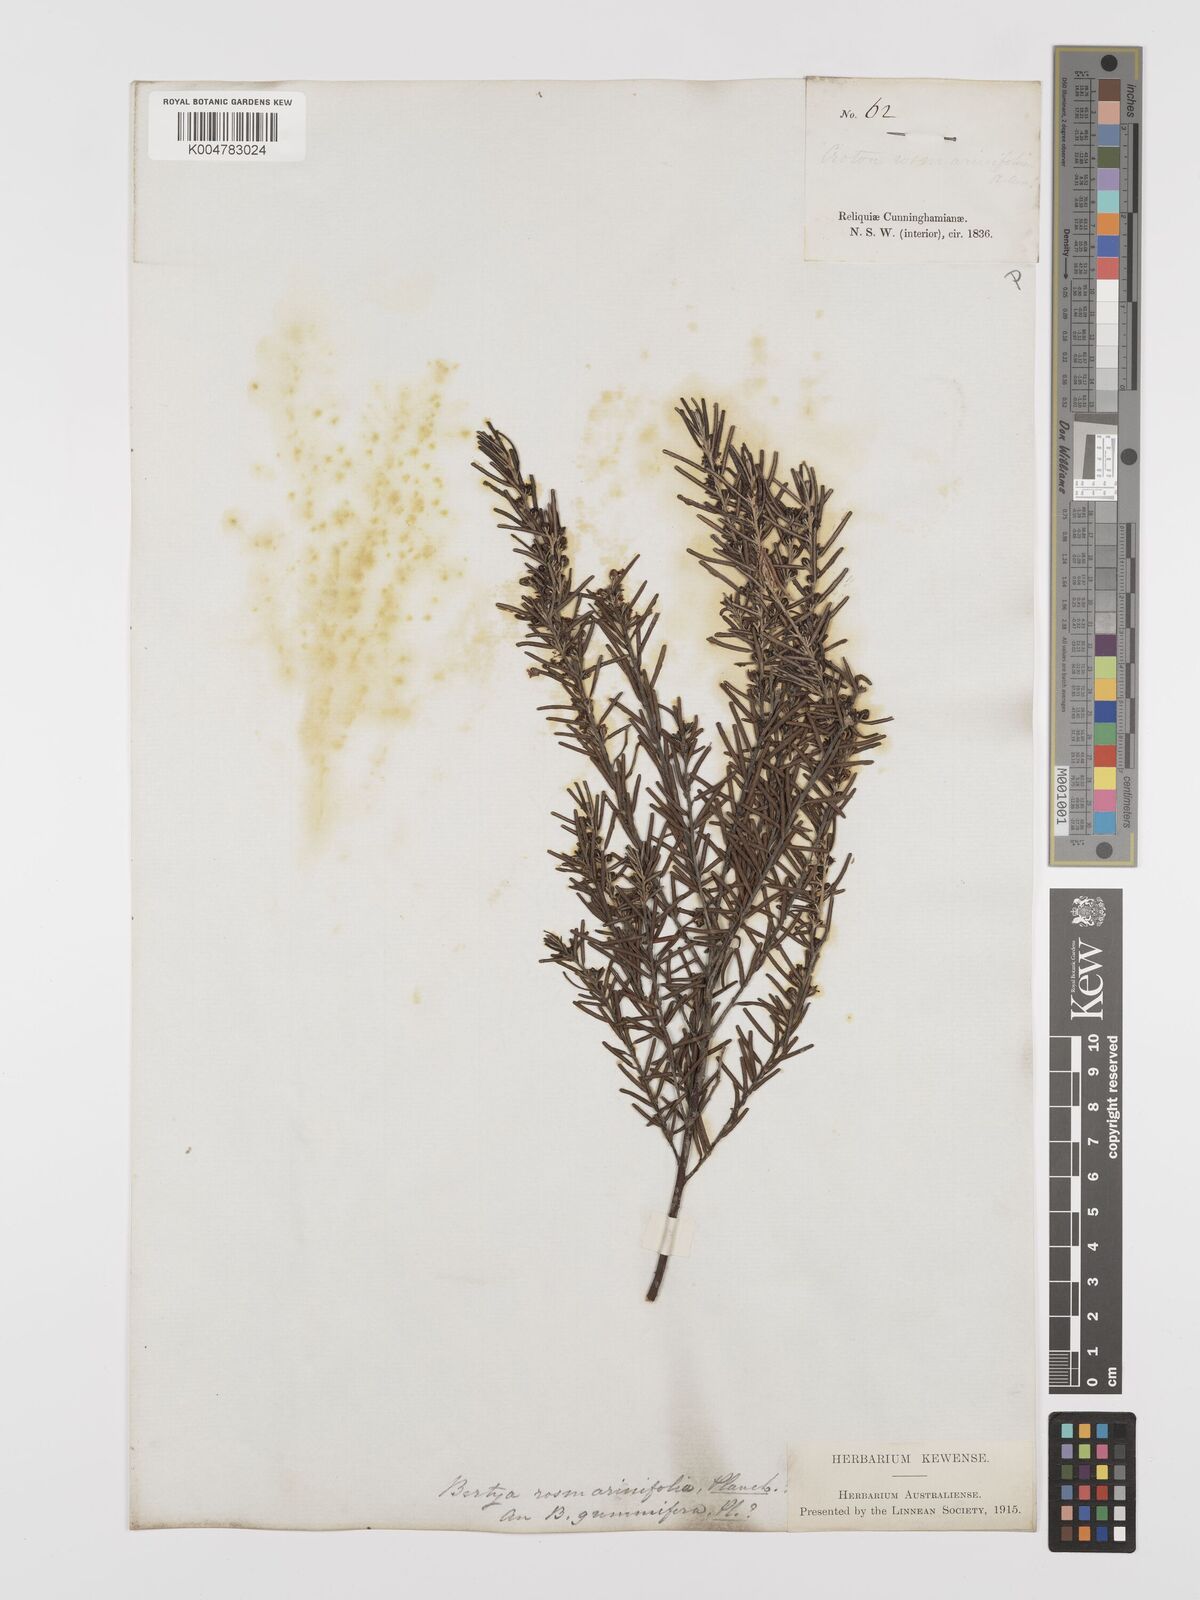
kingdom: Plantae
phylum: Tracheophyta
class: Magnoliopsida
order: Malpighiales
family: Euphorbiaceae
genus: Bertya
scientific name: Bertya rosmarinifolia
